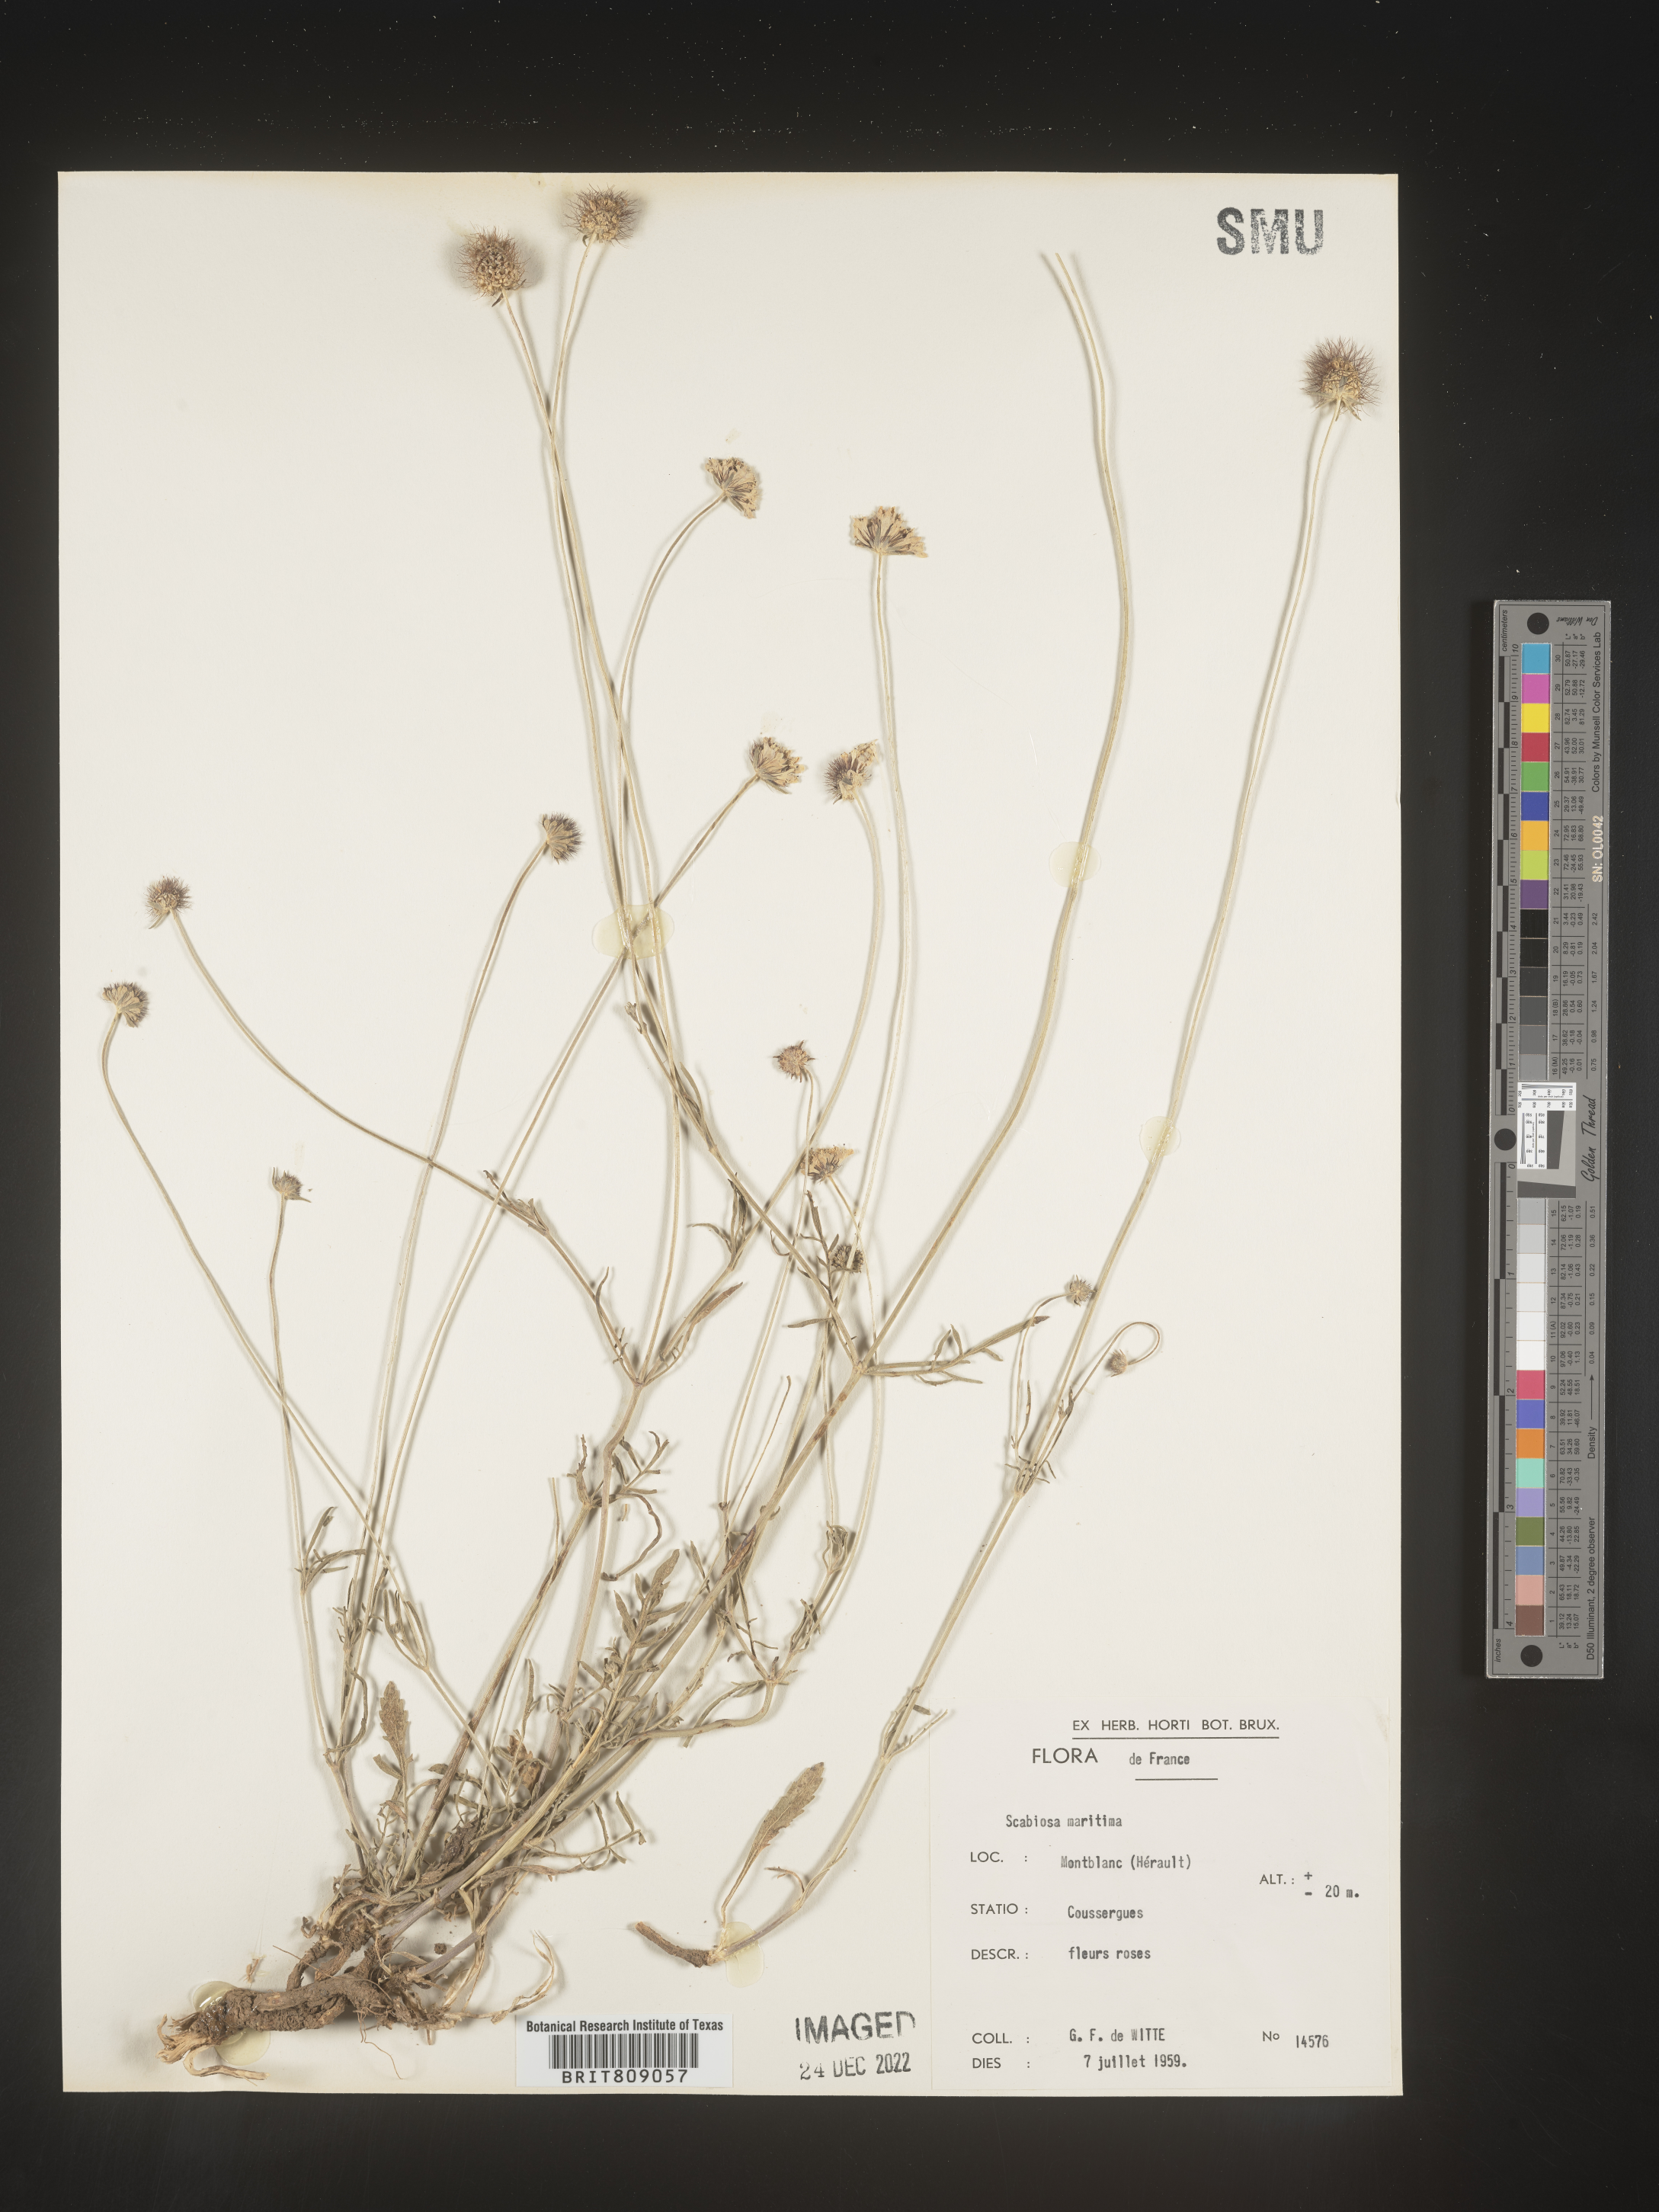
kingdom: Plantae
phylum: Tracheophyta
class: Magnoliopsida
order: Dipsacales
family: Caprifoliaceae
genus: Scabiosa
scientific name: Scabiosa
